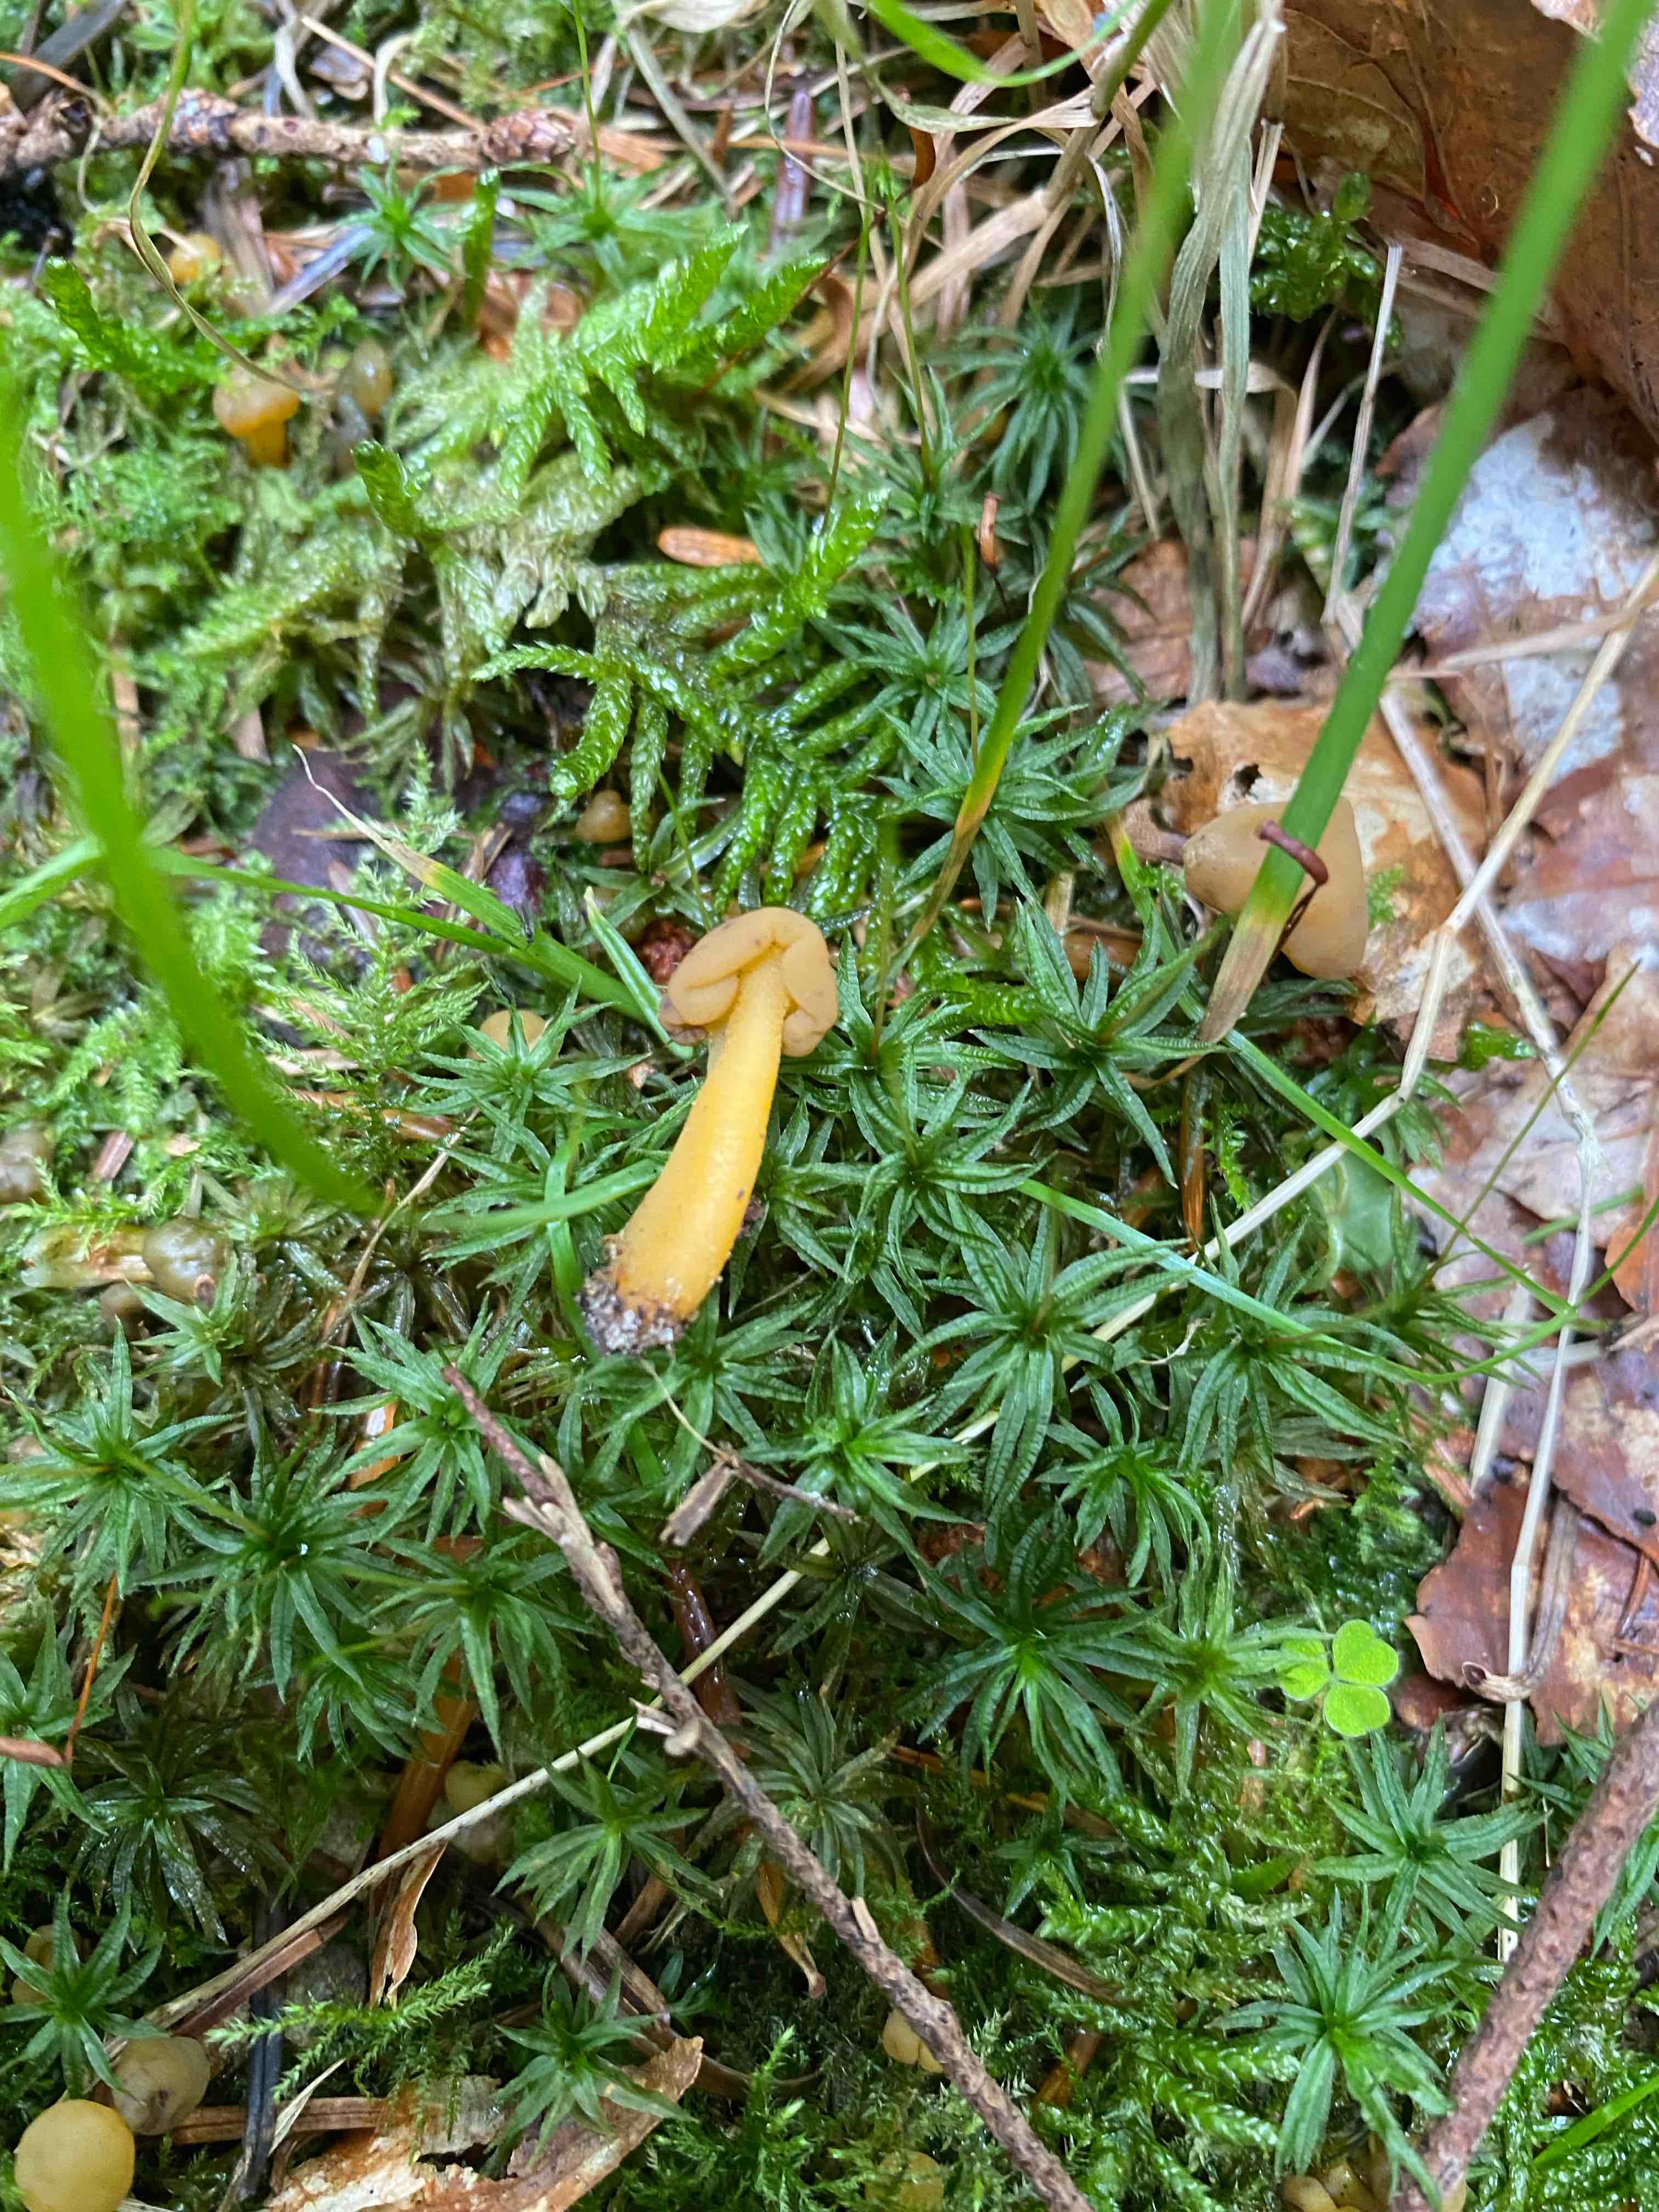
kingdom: Fungi
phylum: Ascomycota
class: Leotiomycetes
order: Leotiales
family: Leotiaceae
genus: Leotia
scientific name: Leotia lubrica
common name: ravsvamp
